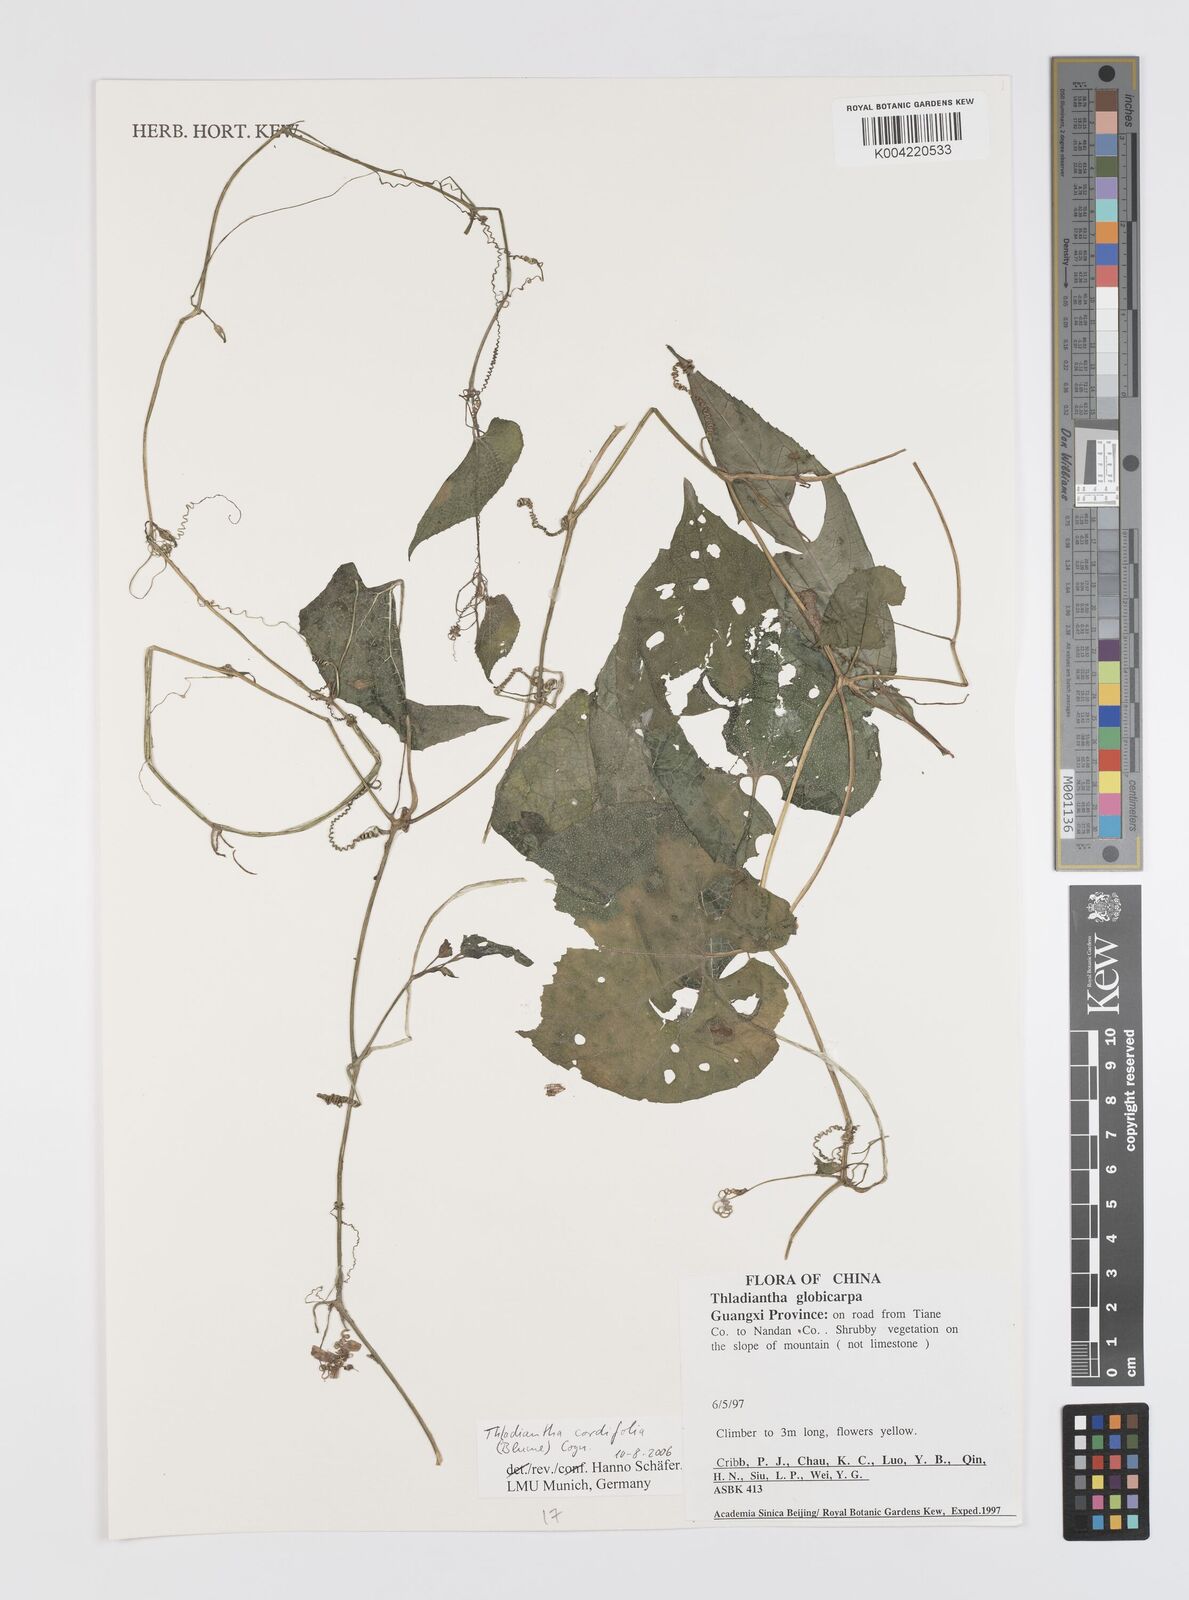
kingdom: Plantae
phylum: Tracheophyta
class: Magnoliopsida
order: Cucurbitales
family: Cucurbitaceae
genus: Thladiantha
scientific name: Thladiantha cordifolia
